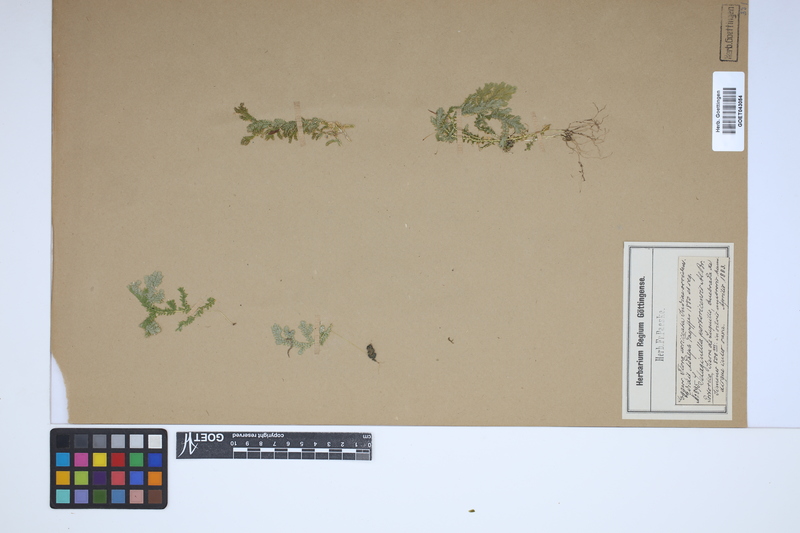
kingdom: Plantae
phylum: Tracheophyta
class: Lycopodiopsida
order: Selaginellales
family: Selaginellaceae
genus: Selaginella
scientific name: Selaginella substipitata
